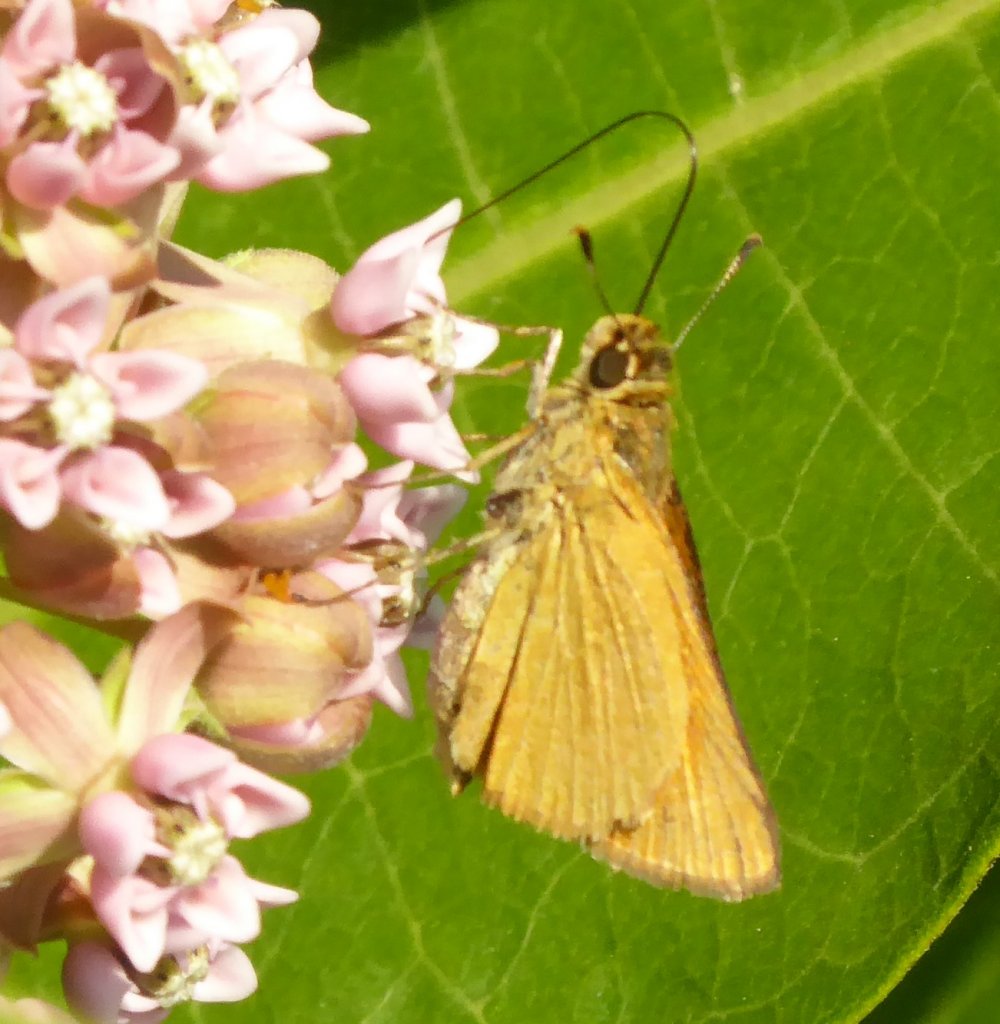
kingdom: Animalia
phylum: Arthropoda
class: Insecta
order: Lepidoptera
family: Hesperiidae
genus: Atrytone
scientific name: Atrytone delaware
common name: Delaware Skipper
